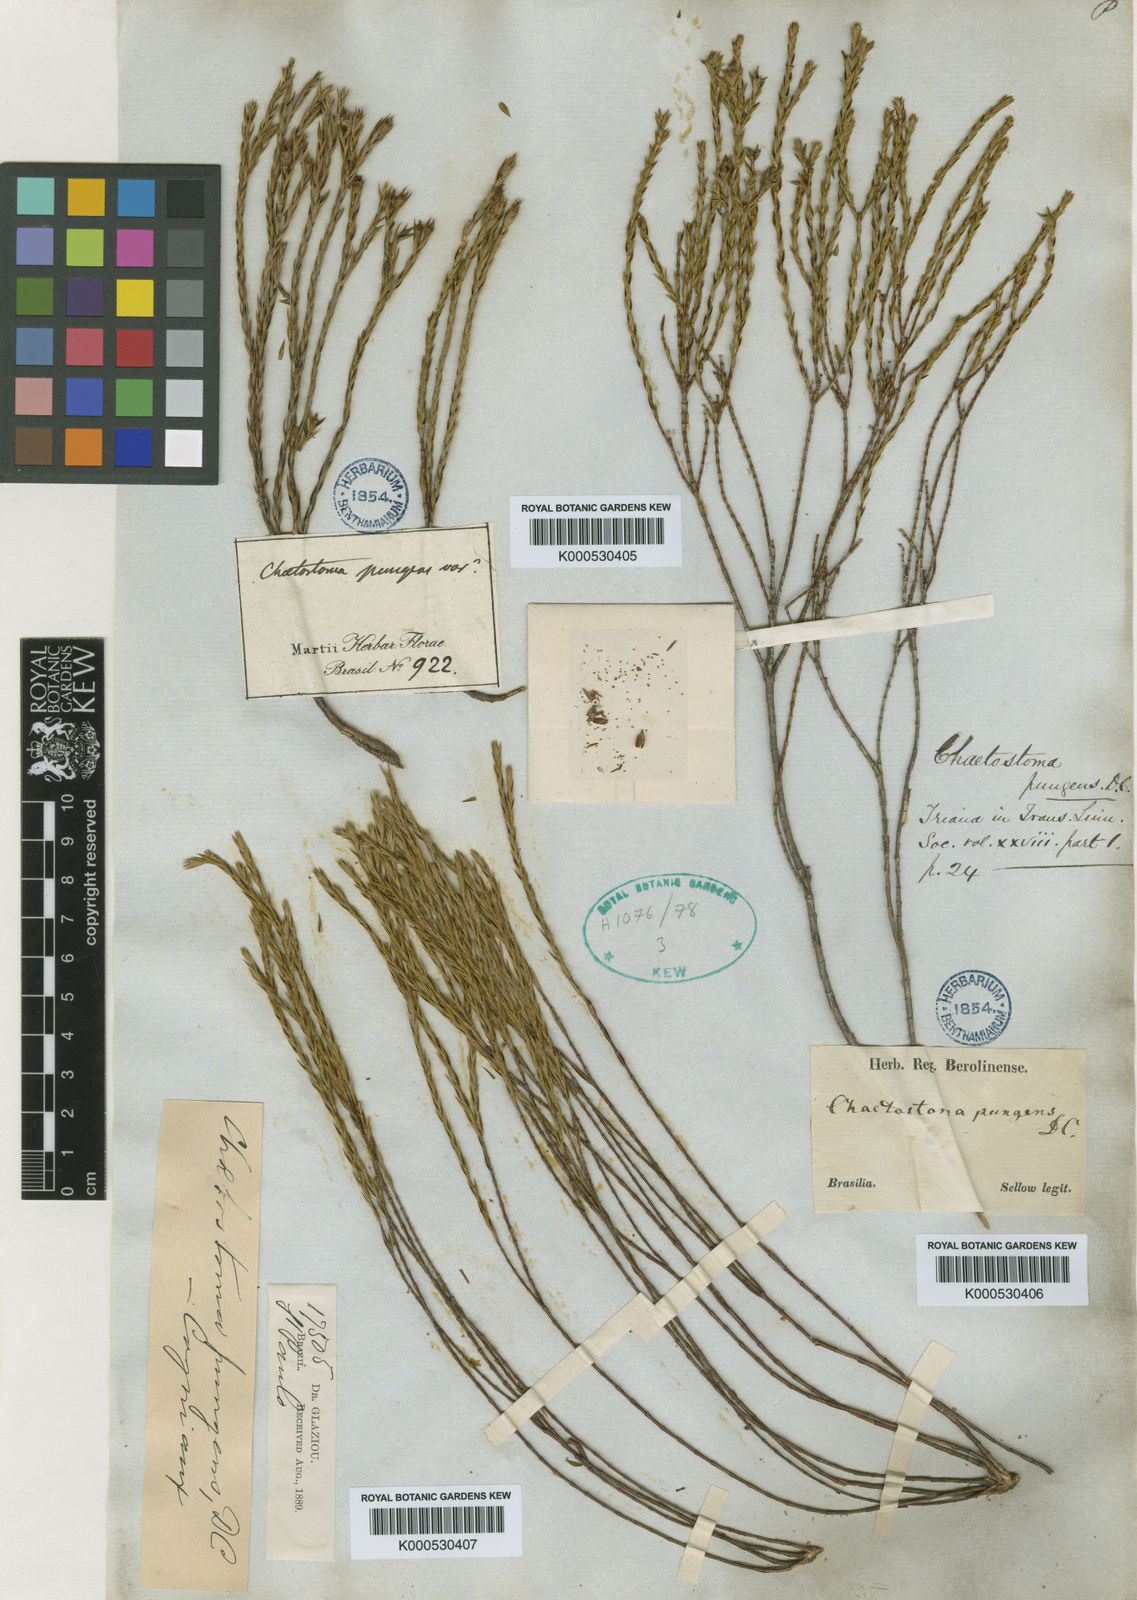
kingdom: Plantae
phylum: Tracheophyta
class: Magnoliopsida
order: Myrtales
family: Melastomataceae
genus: Microlicia
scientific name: Microlicia armata
